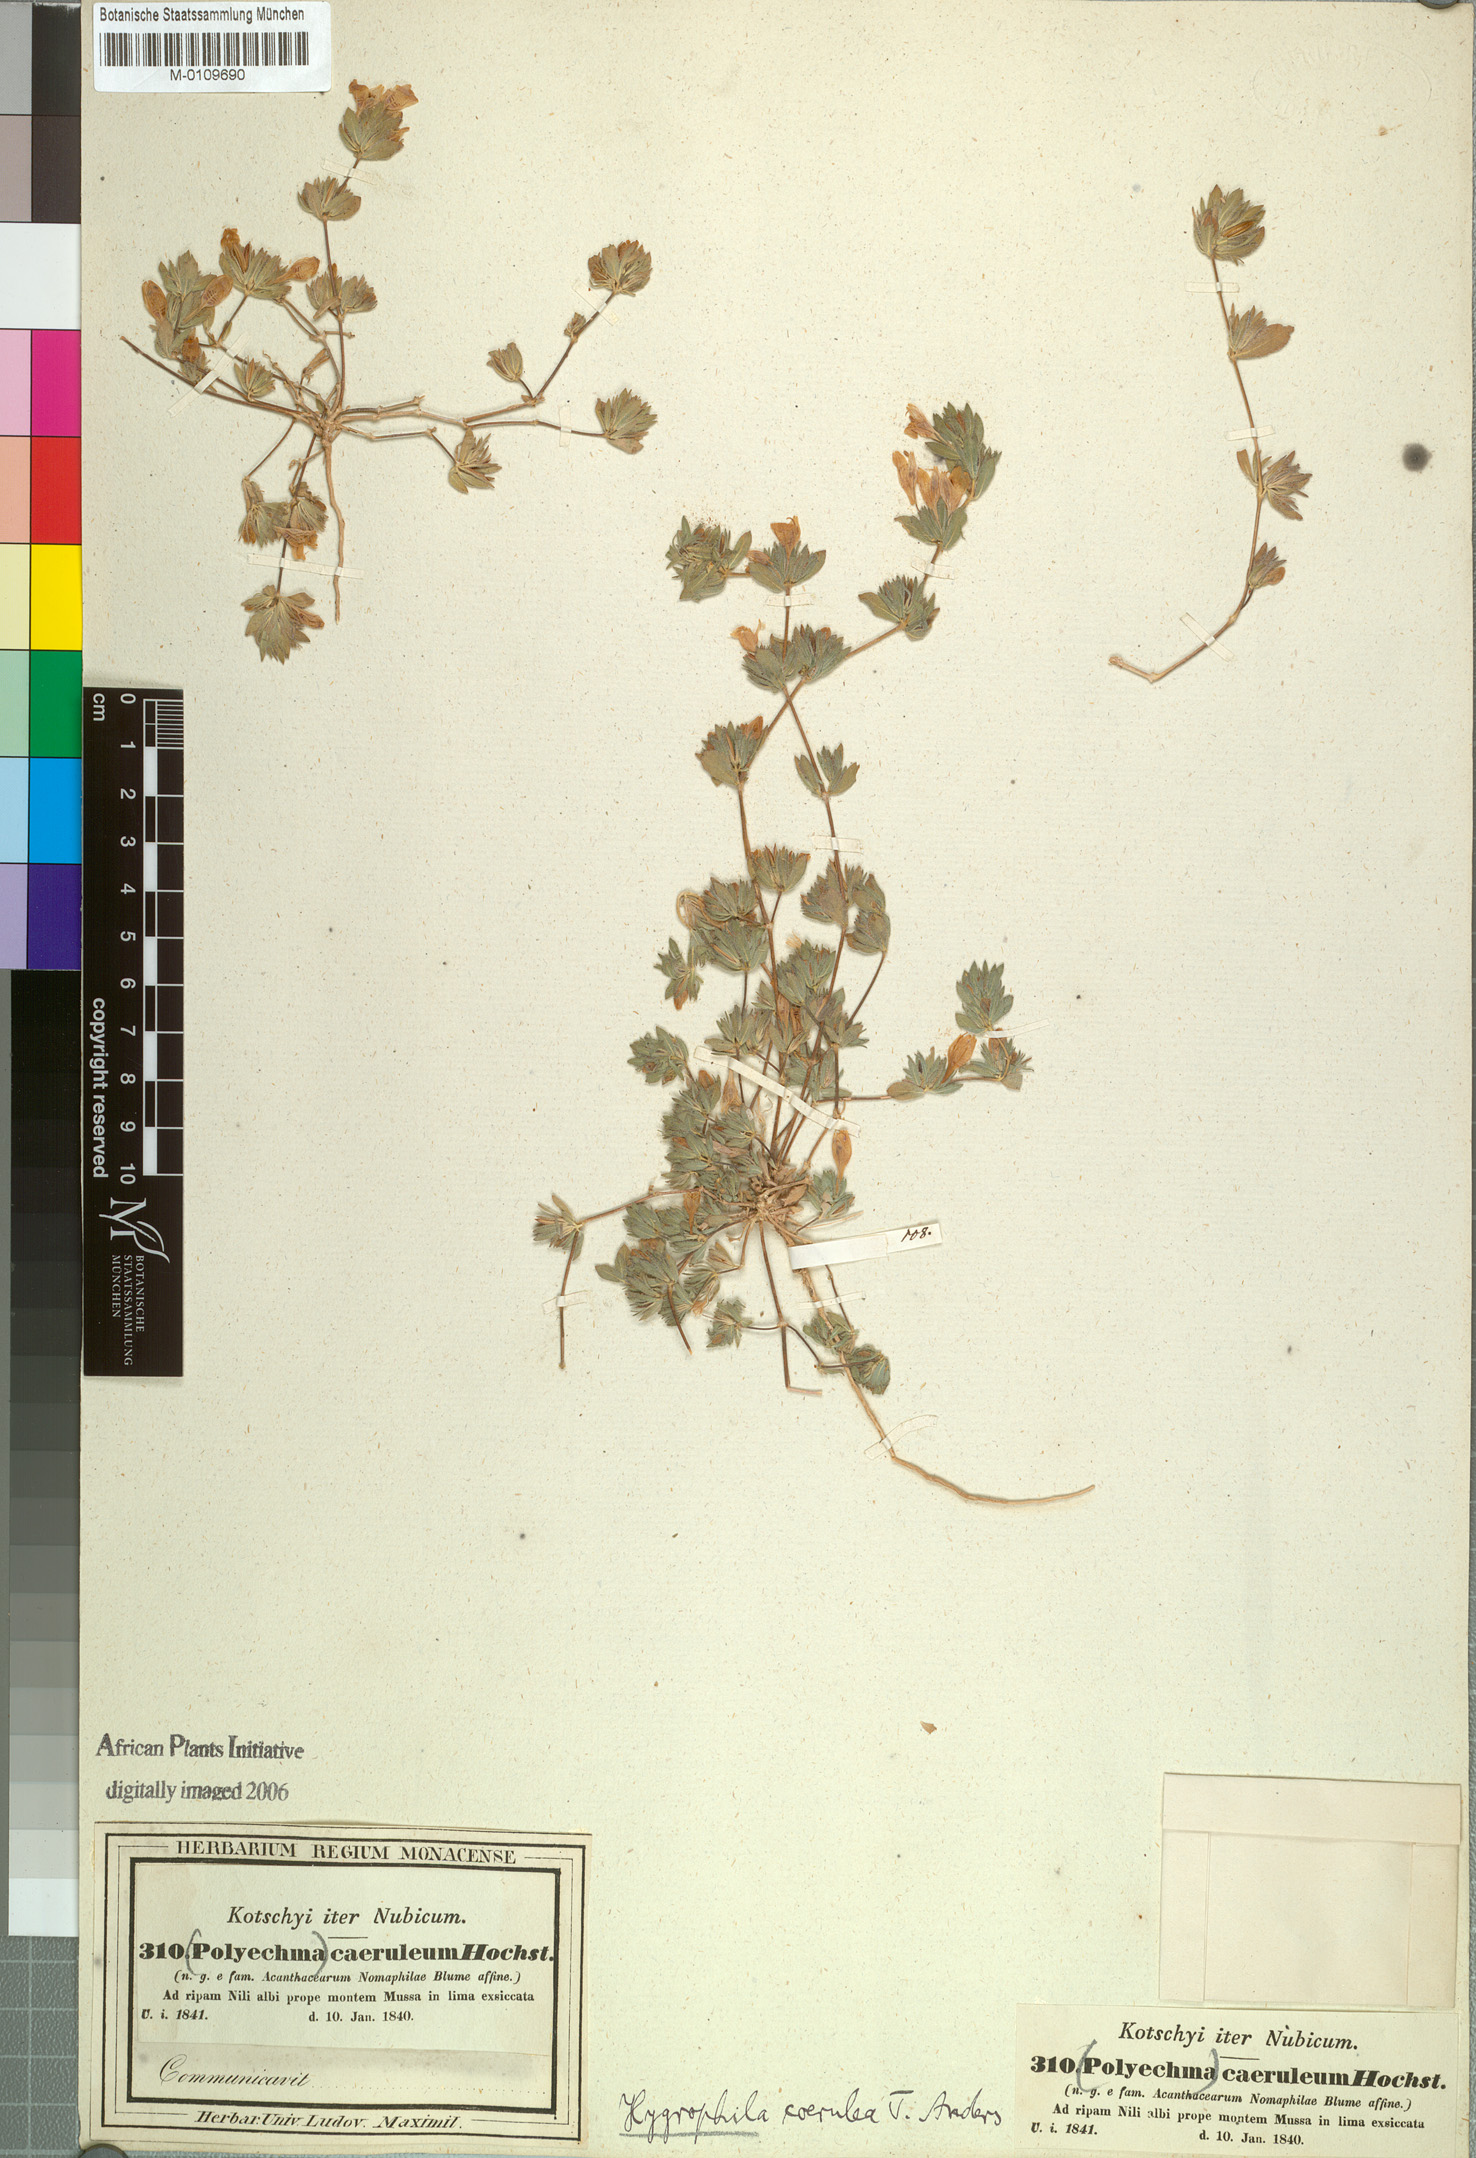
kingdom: Plantae
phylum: Tracheophyta
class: Magnoliopsida
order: Lamiales
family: Acanthaceae
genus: Hygrophila
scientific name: Hygrophila caerulea
